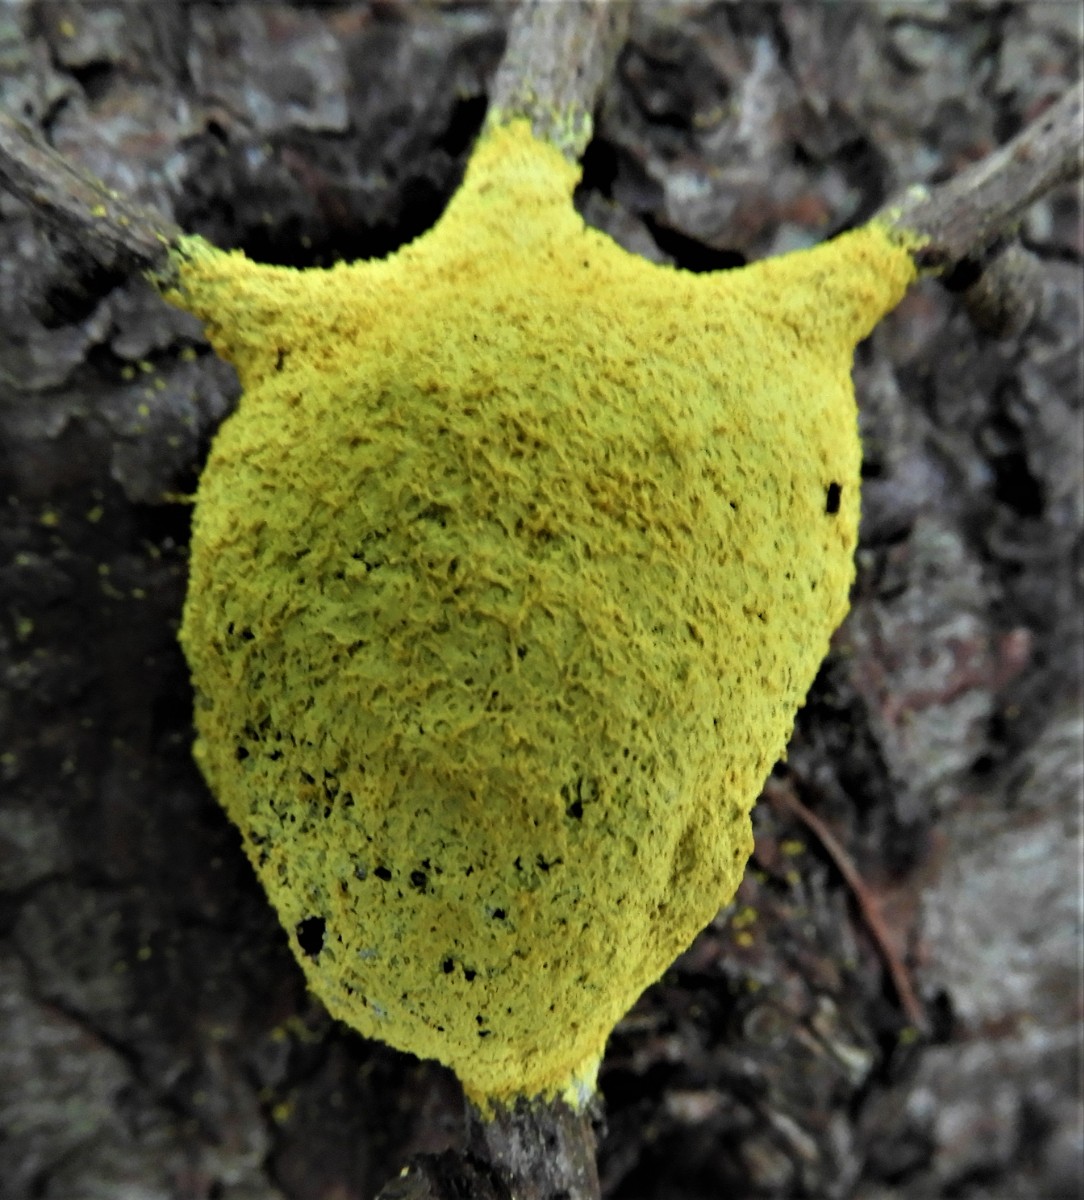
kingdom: Protozoa
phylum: Mycetozoa
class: Myxomycetes
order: Physarales
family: Physaraceae
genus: Fuligo
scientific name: Fuligo septica
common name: gul troldsmør
